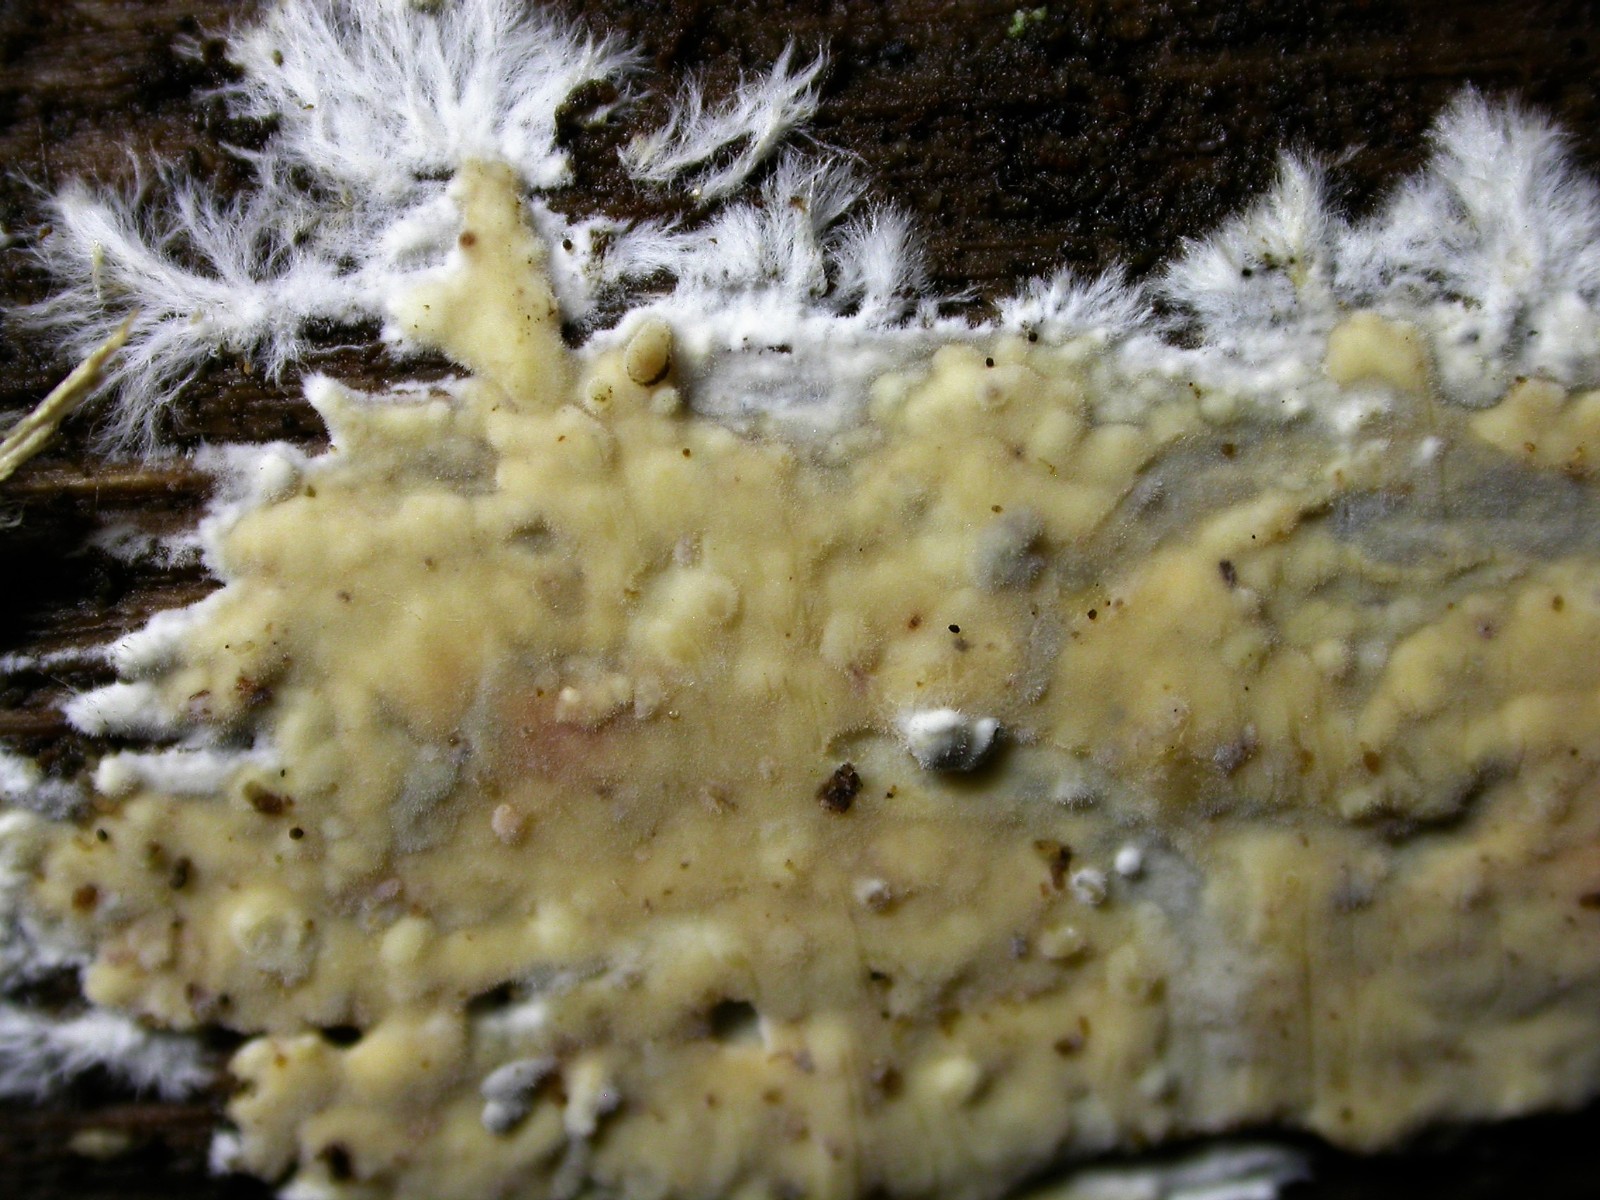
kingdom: Fungi
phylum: Basidiomycota
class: Agaricomycetes
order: Polyporales
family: Phanerochaetaceae
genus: Phanerochaete
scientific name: Phanerochaete sordida
